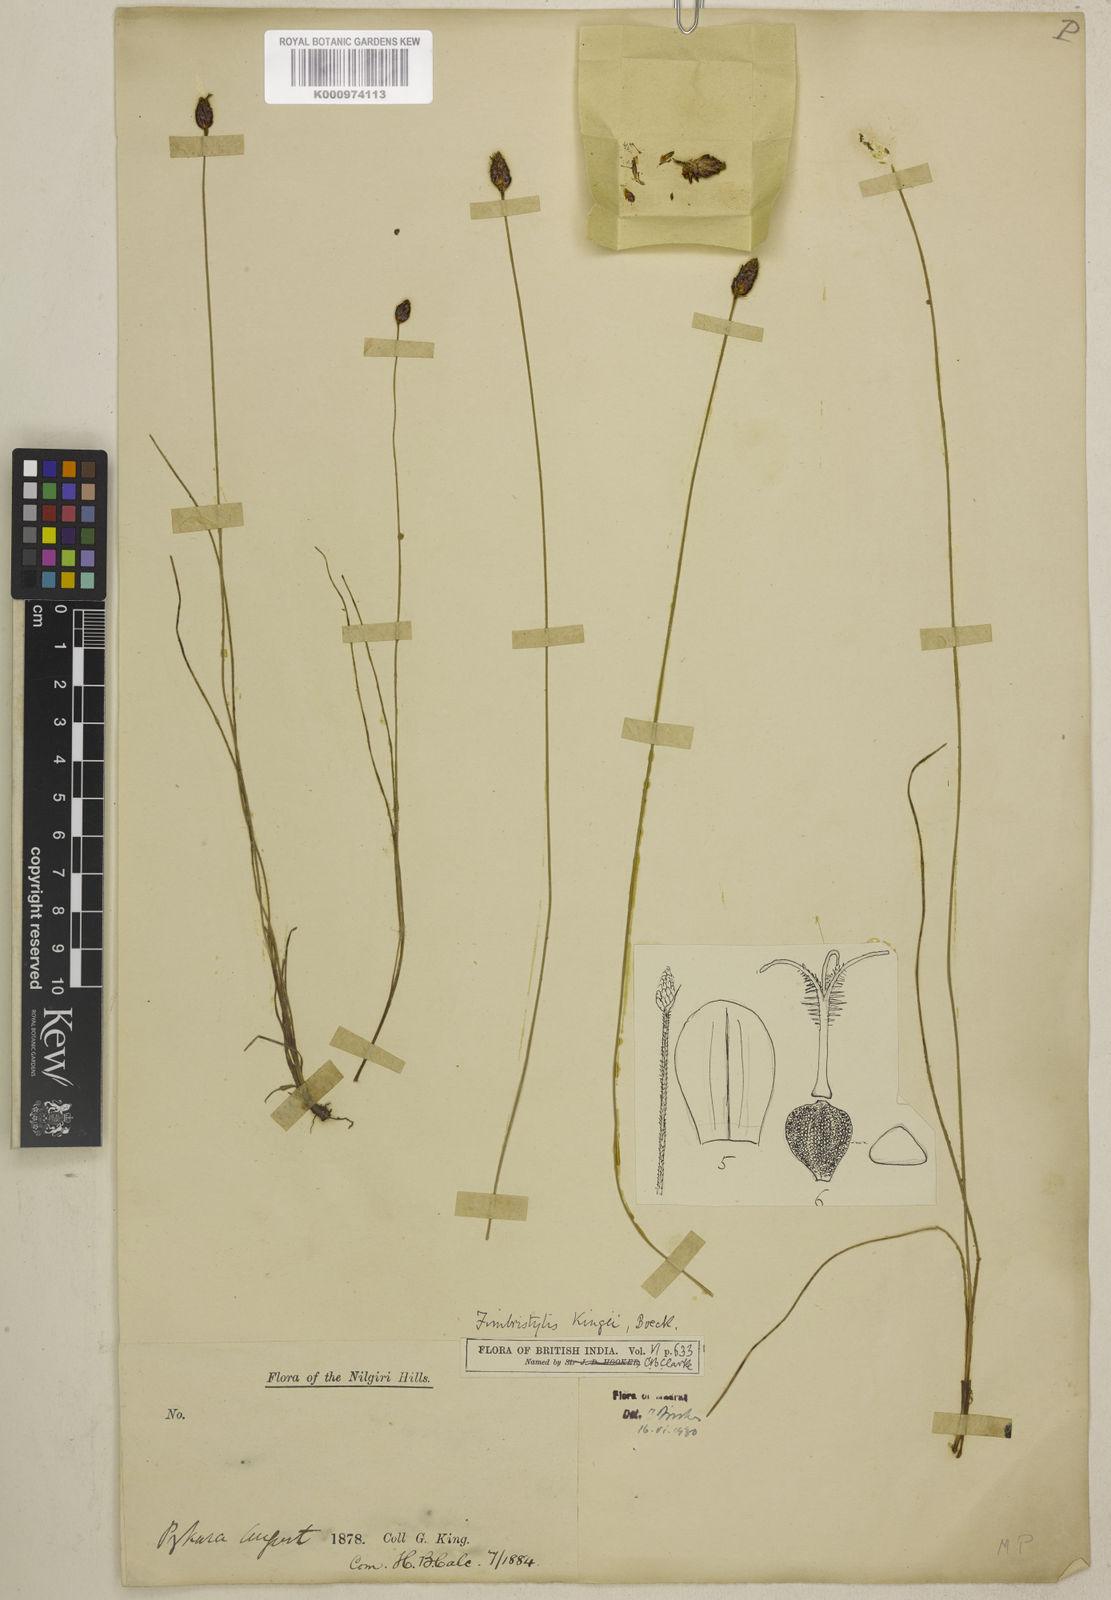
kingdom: Plantae
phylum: Tracheophyta
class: Liliopsida
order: Poales
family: Cyperaceae
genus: Fimbristylis
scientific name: Fimbristylis
